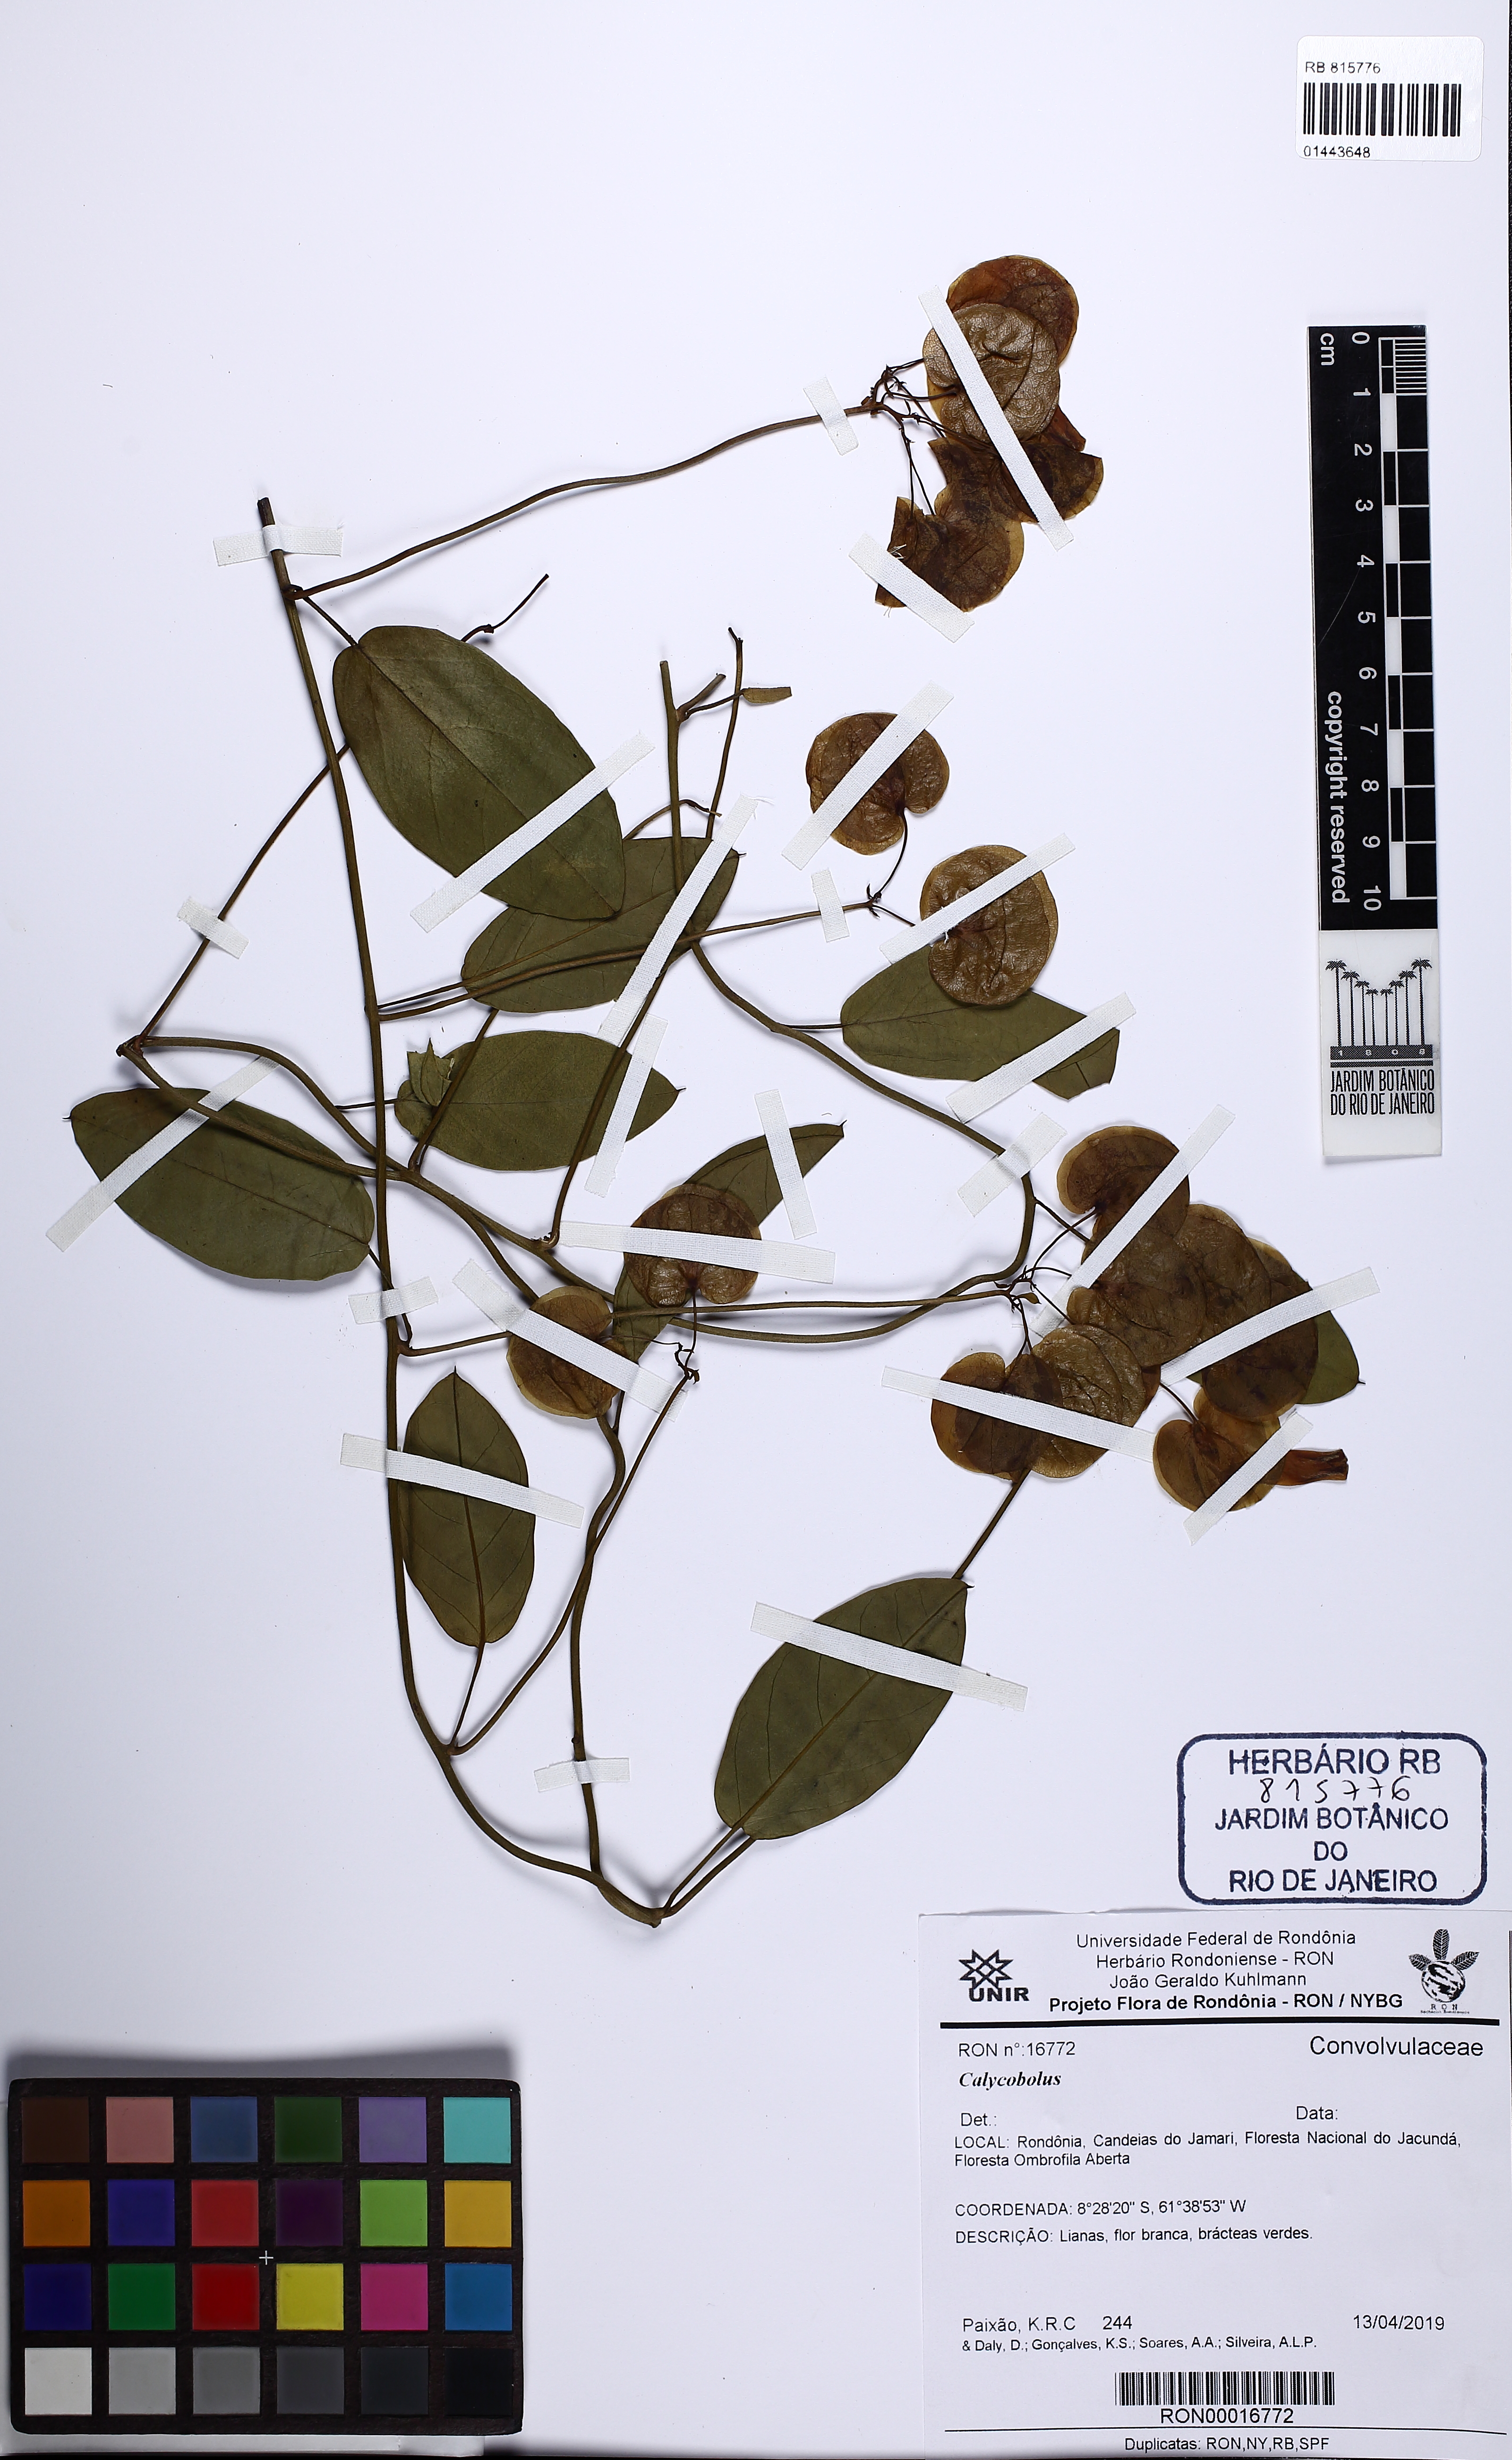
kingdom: Plantae
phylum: Tracheophyta
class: Magnoliopsida
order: Solanales
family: Convolvulaceae
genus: Calycobolus
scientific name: Calycobolus
